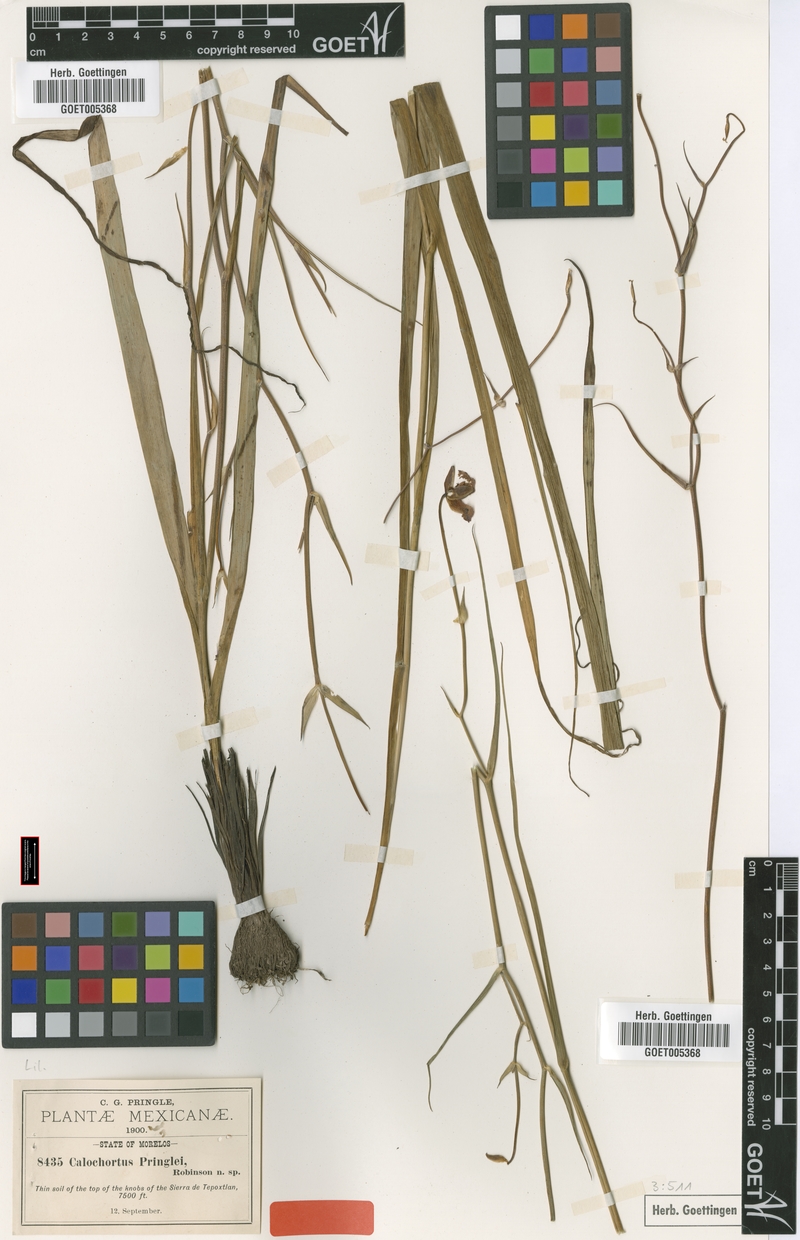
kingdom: Plantae
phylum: Tracheophyta
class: Liliopsida
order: Liliales
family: Liliaceae
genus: Calochortus
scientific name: Calochortus pringlei
